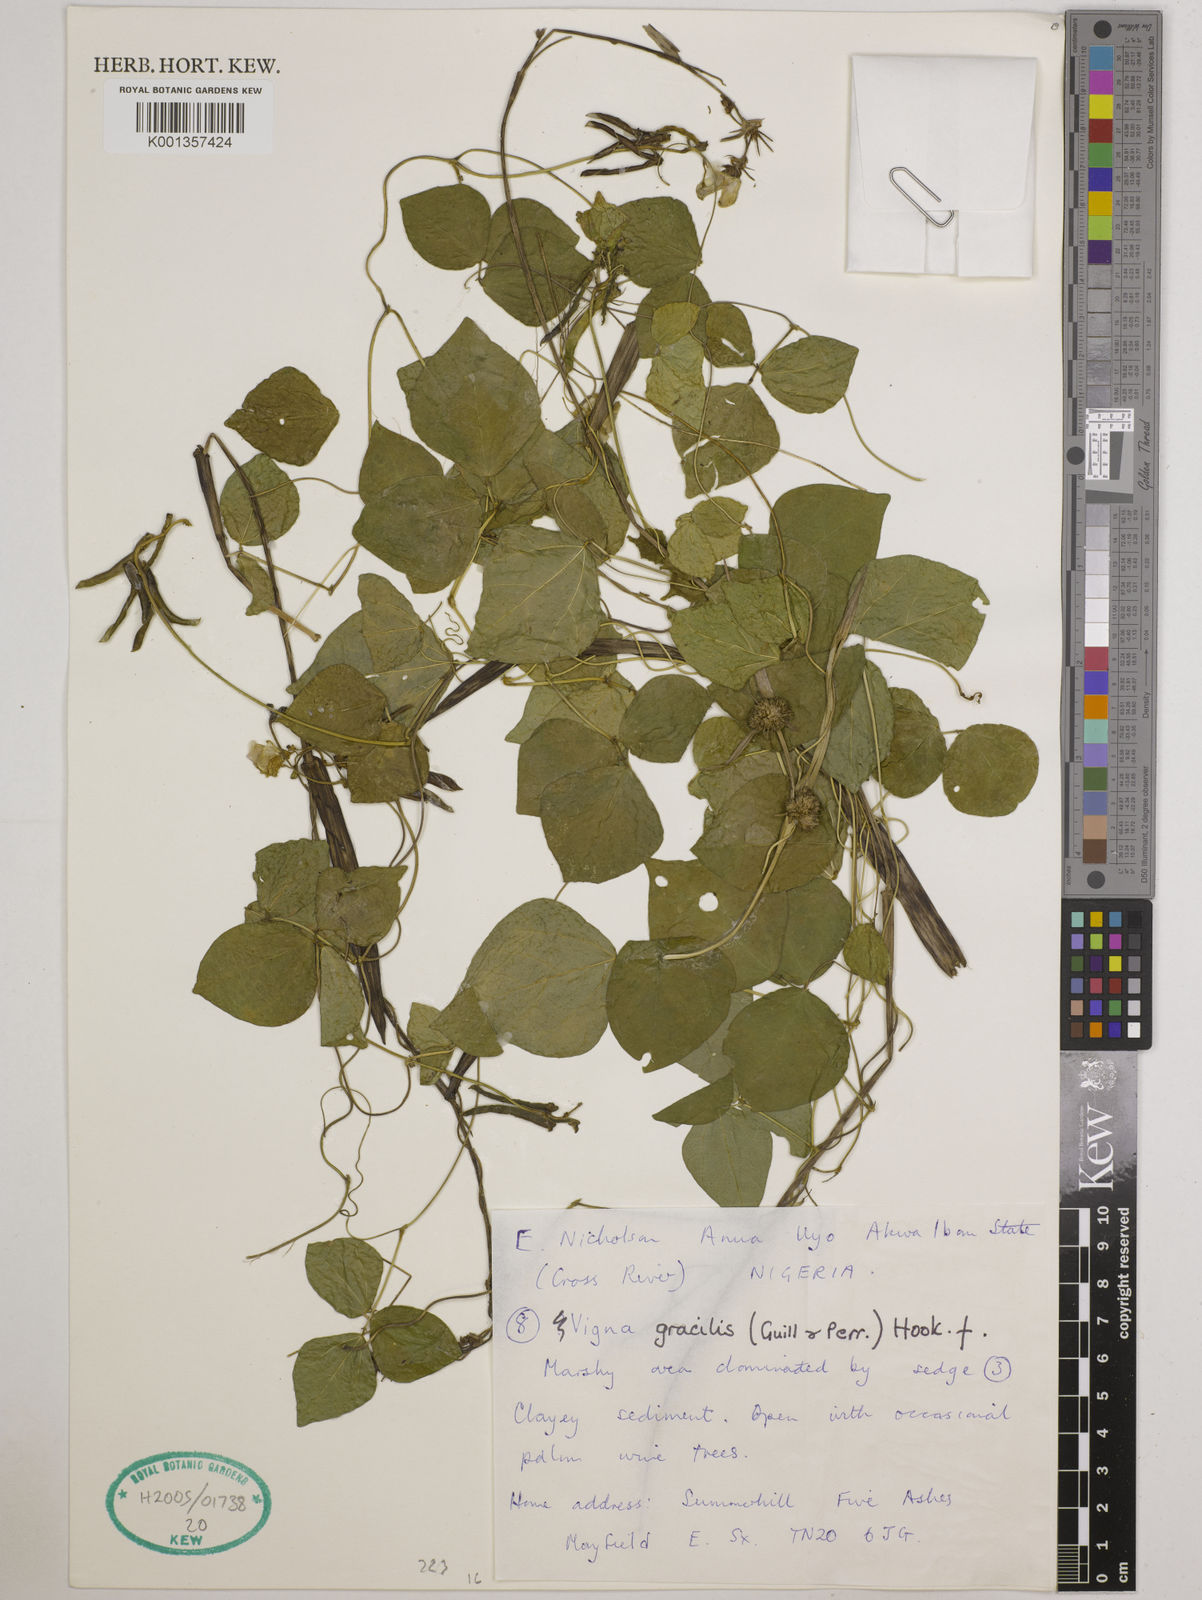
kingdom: Plantae
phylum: Tracheophyta
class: Magnoliopsida
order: Fabales
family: Fabaceae
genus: Vigna
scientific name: Vigna gracilis
